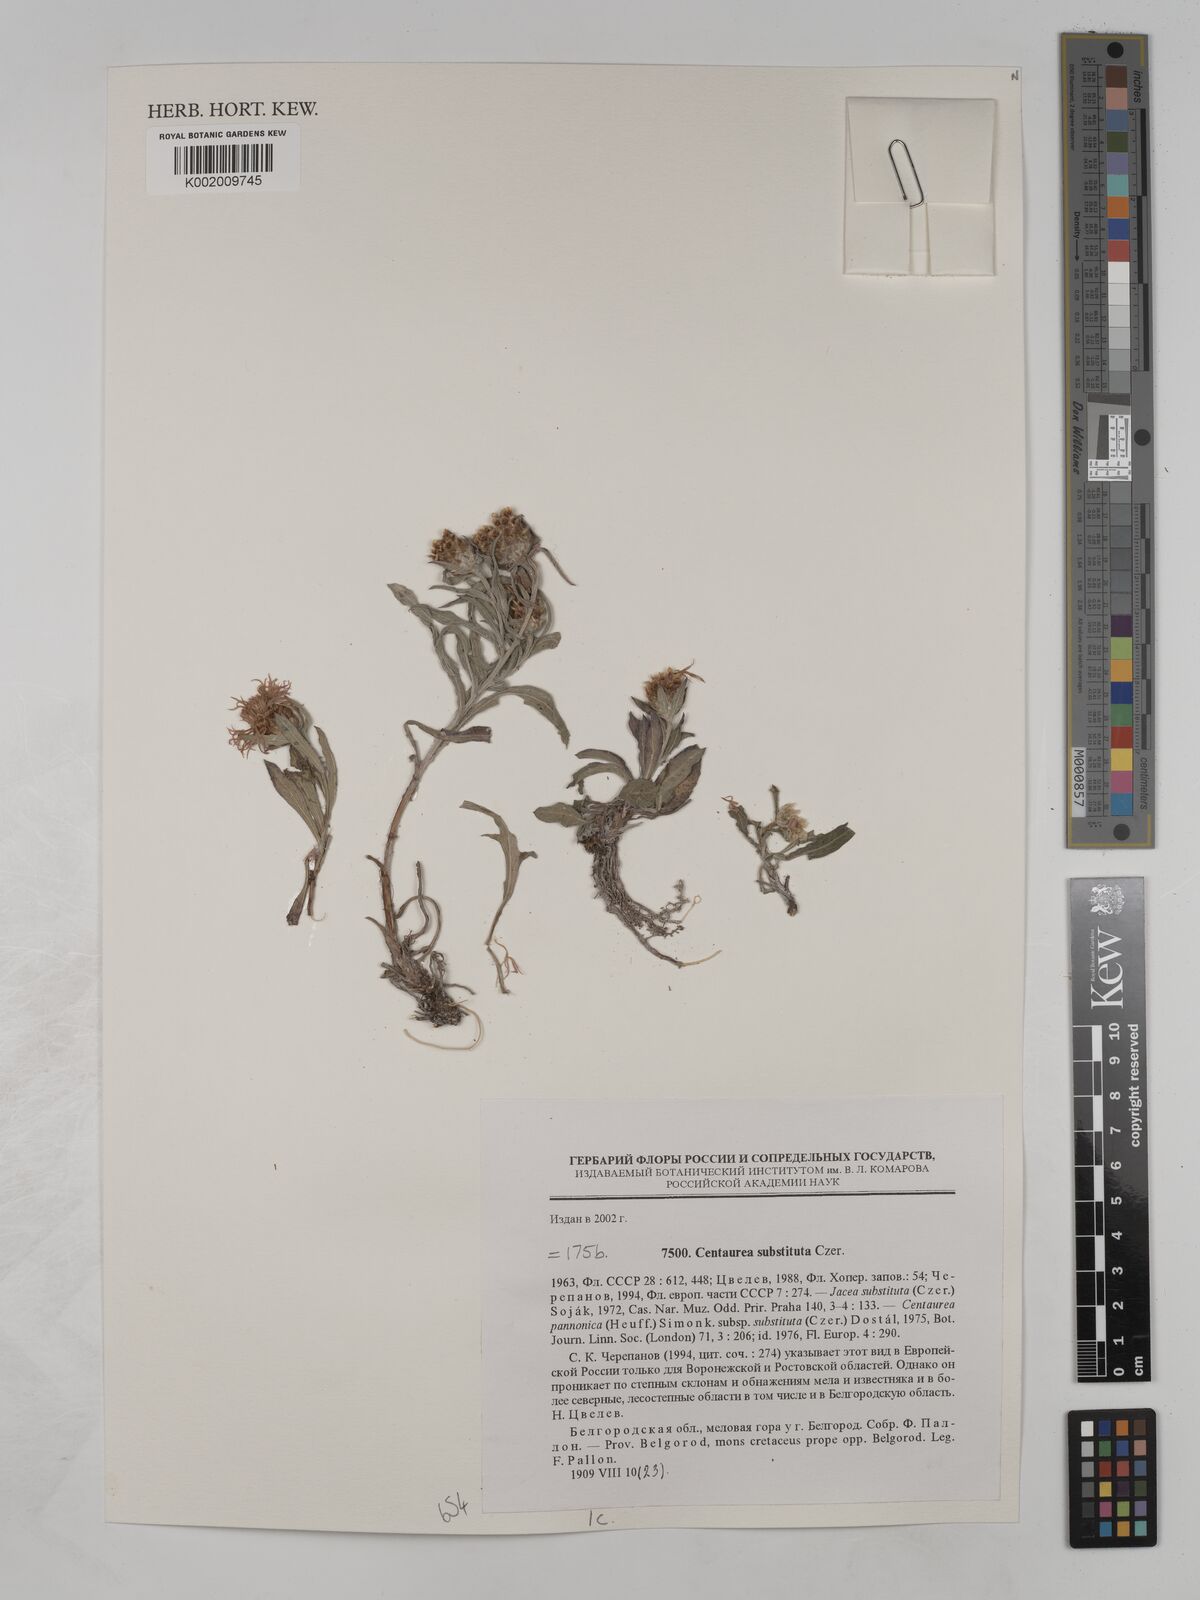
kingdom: Plantae
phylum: Tracheophyta
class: Magnoliopsida
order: Asterales
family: Asteraceae
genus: Centaurea
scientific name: Centaurea jacea
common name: Brown knapweed
